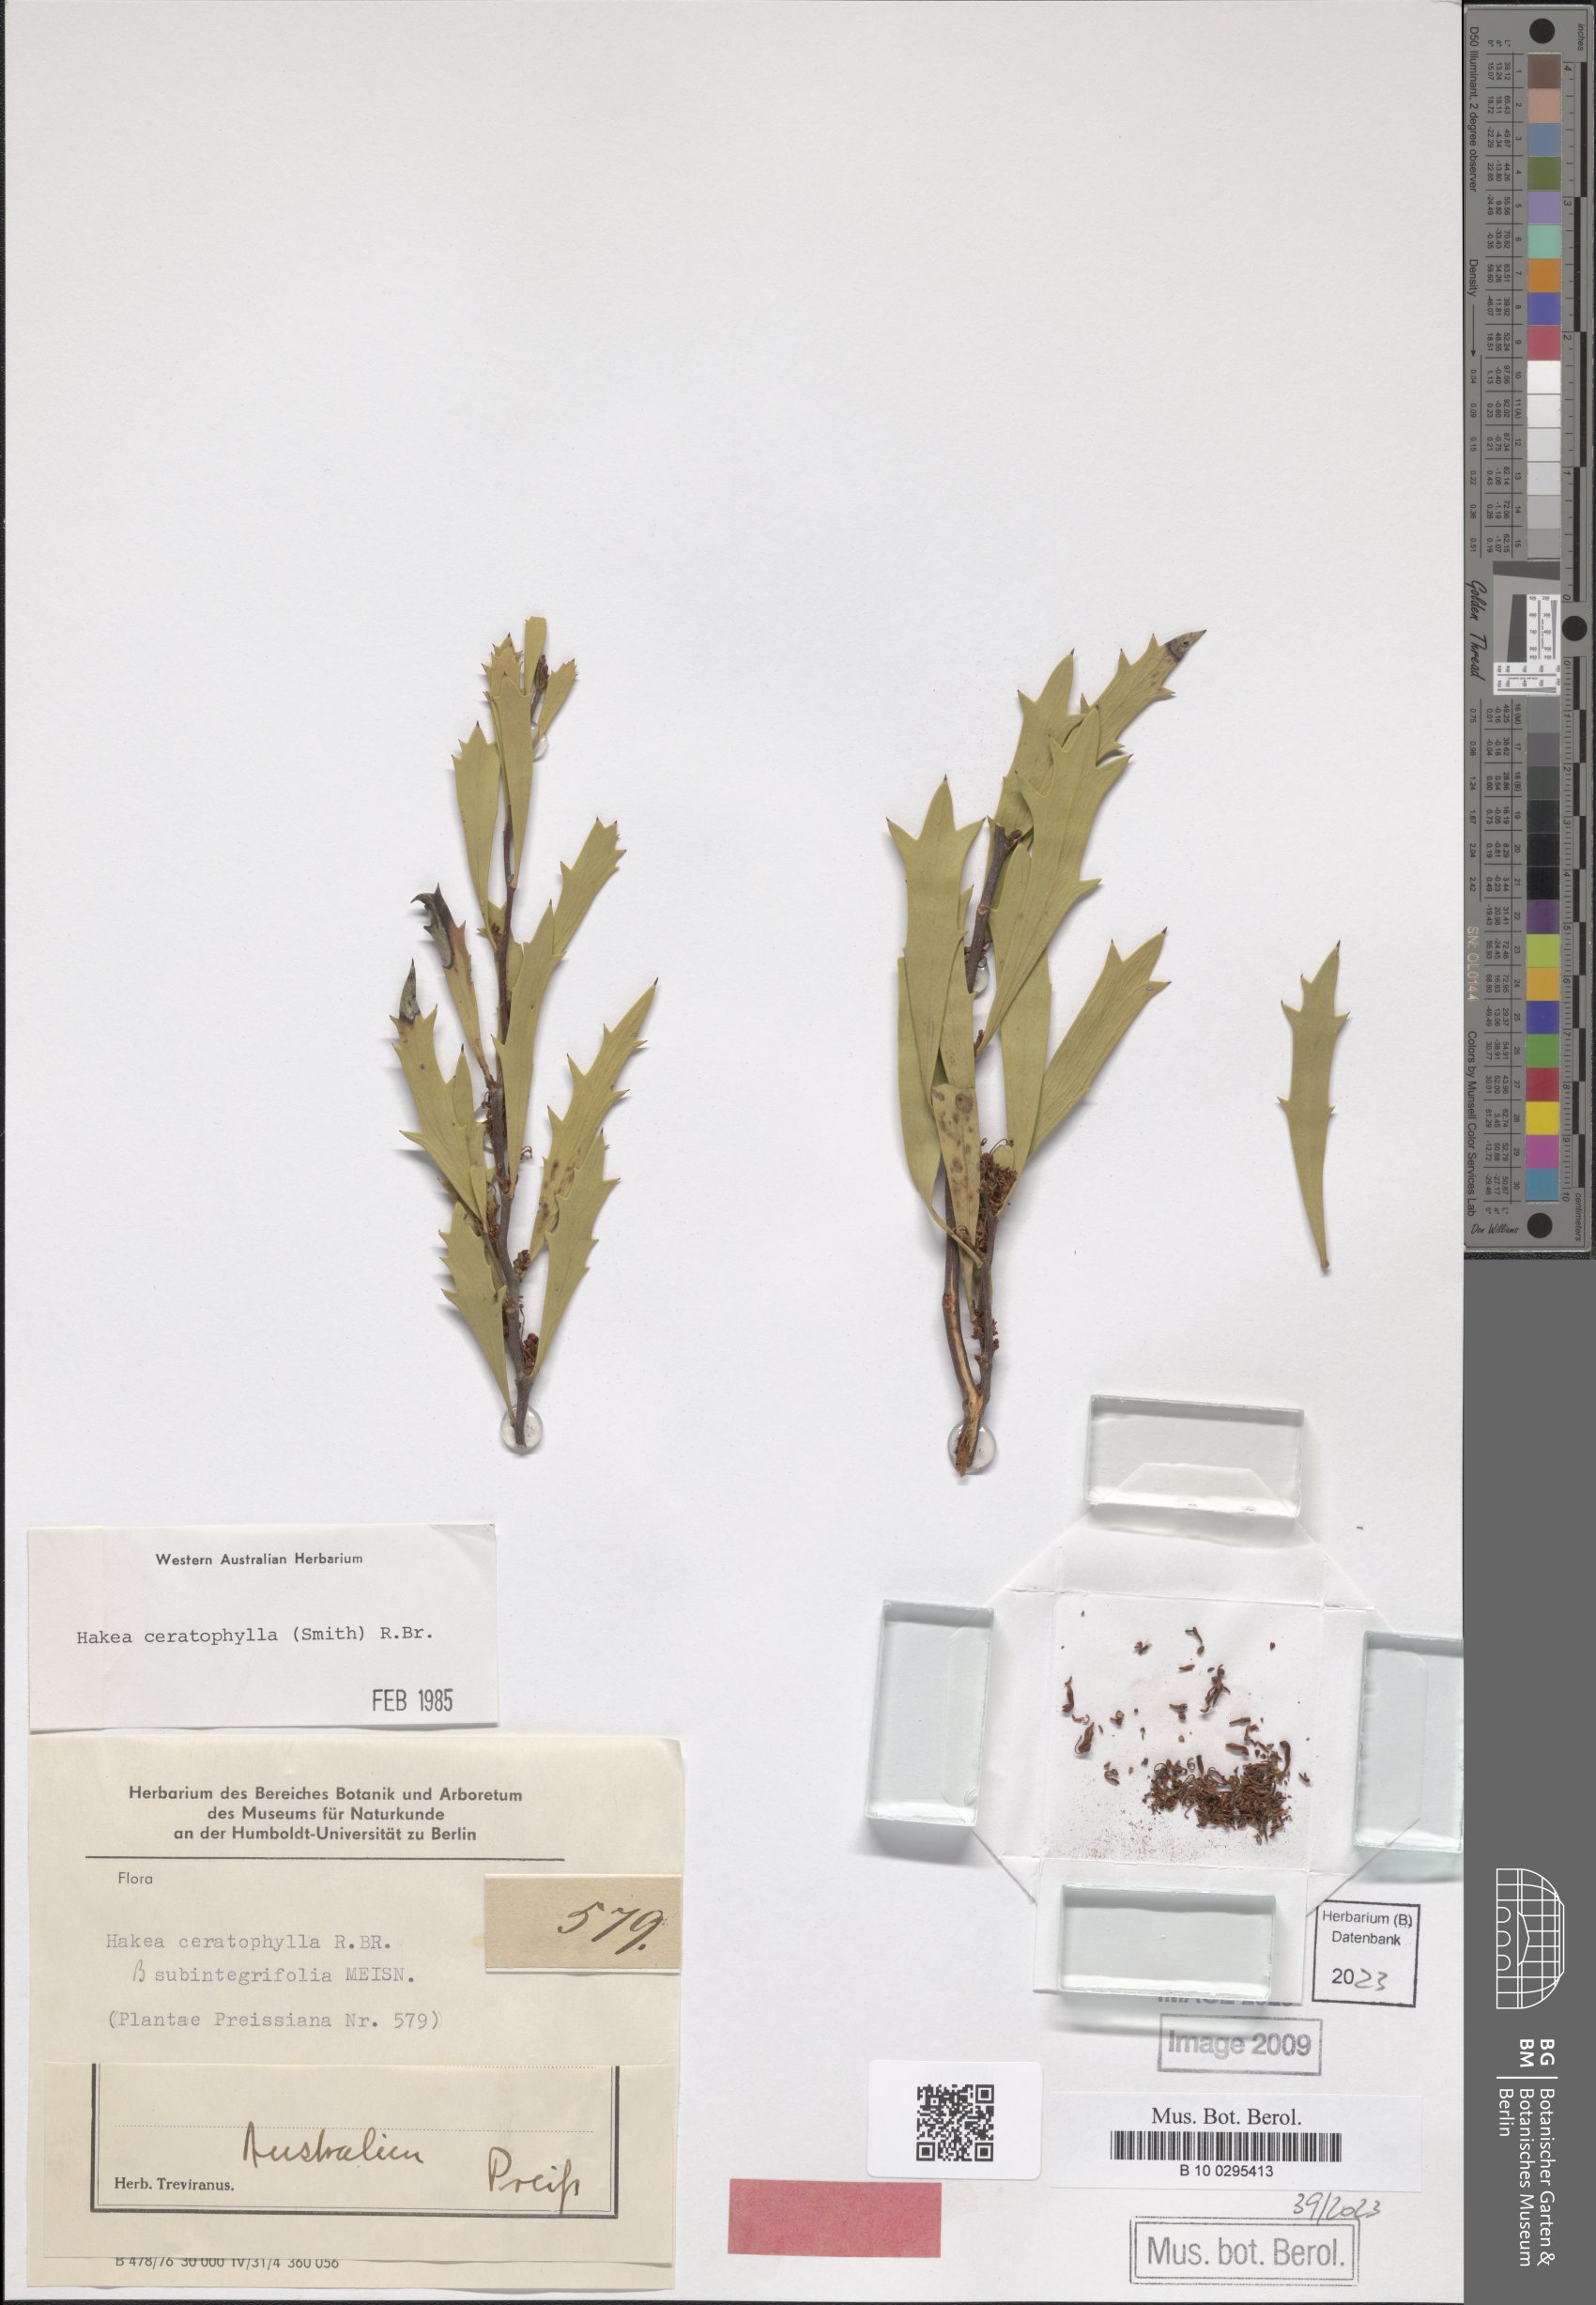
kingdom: Plantae
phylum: Tracheophyta
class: Magnoliopsida
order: Proteales
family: Proteaceae
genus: Hakea
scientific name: Hakea ceratophylla
